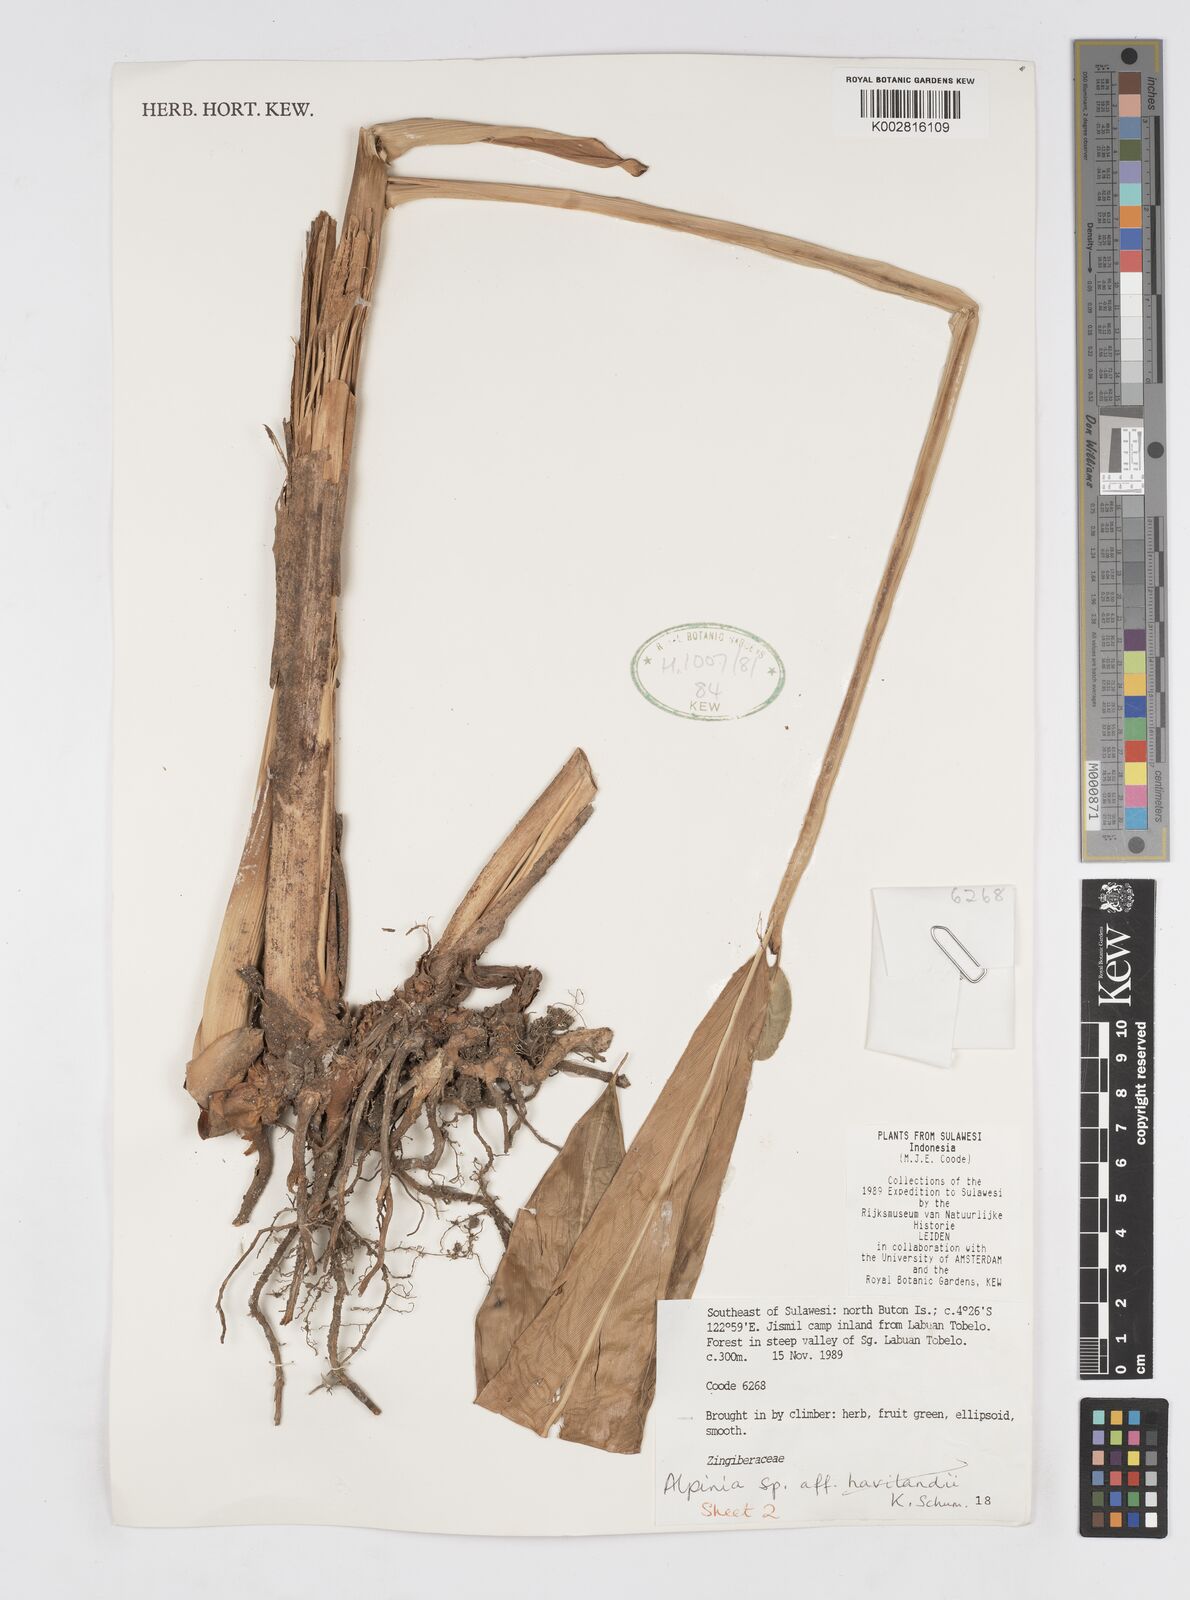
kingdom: Plantae
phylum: Tracheophyta
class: Liliopsida
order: Zingiberales
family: Zingiberaceae
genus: Alpinia
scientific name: Alpinia
